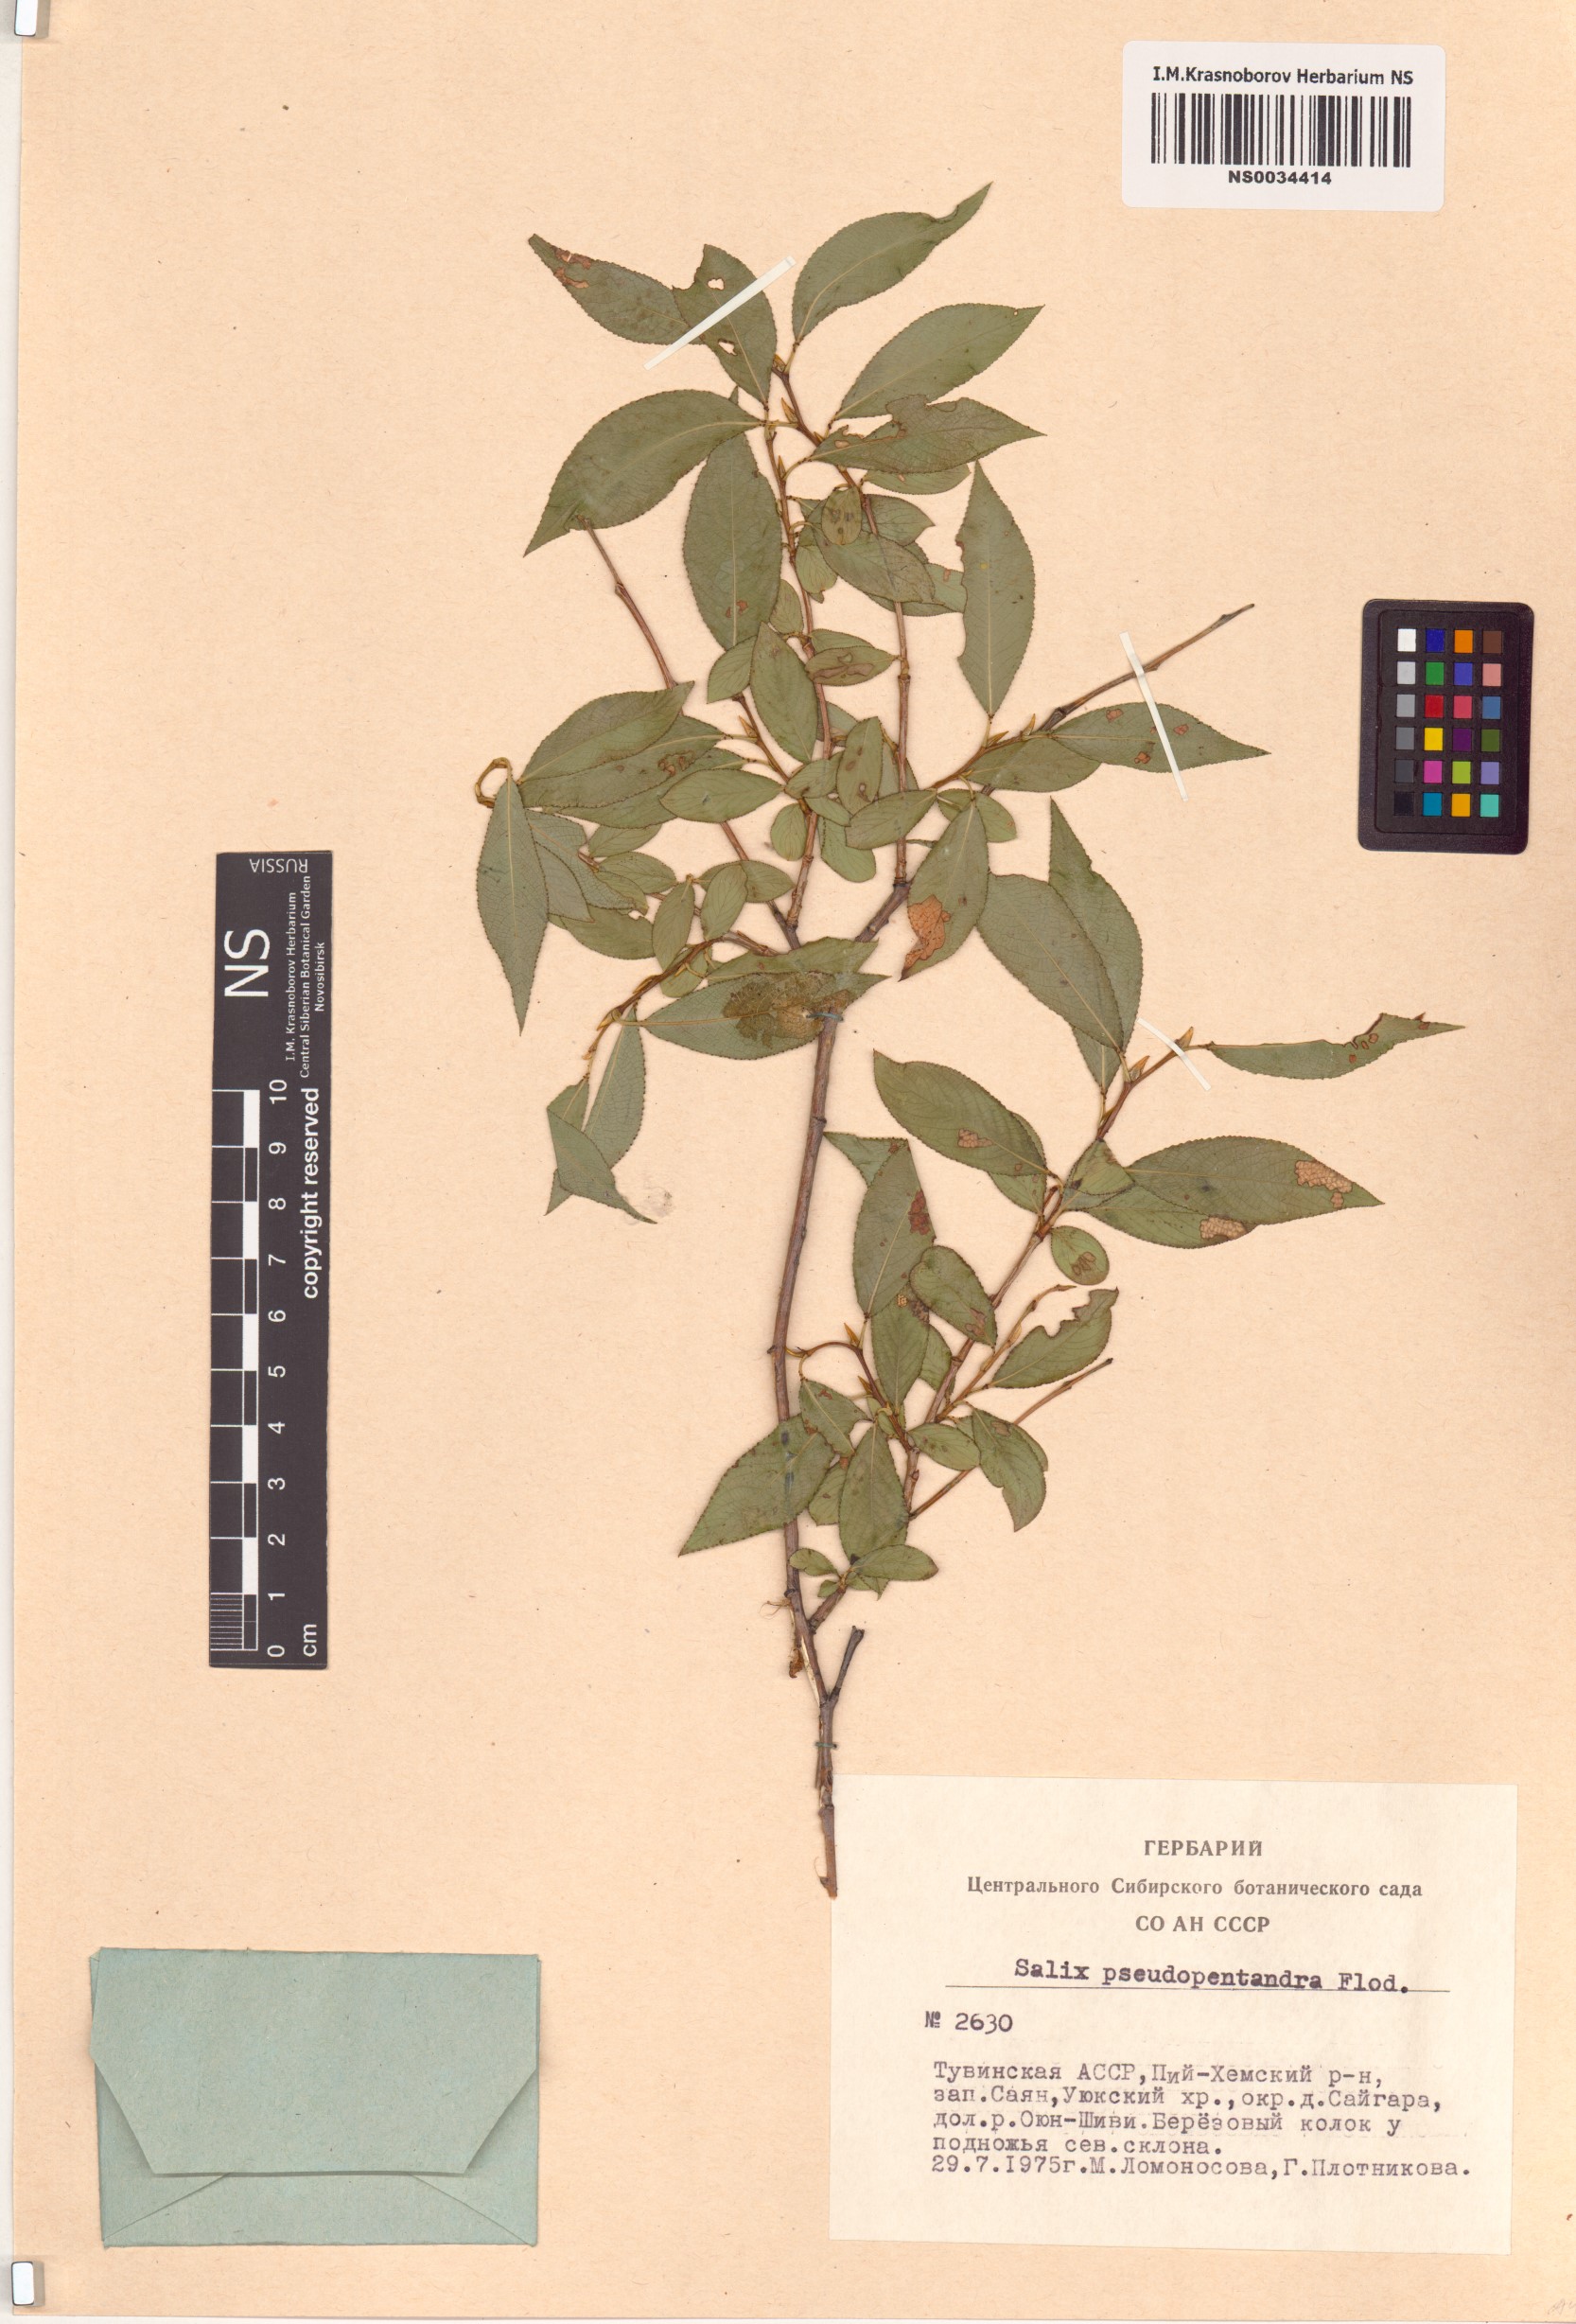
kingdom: Plantae
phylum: Tracheophyta
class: Magnoliopsida
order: Malpighiales
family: Salicaceae
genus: Salix
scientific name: Salix pseudopentandra
